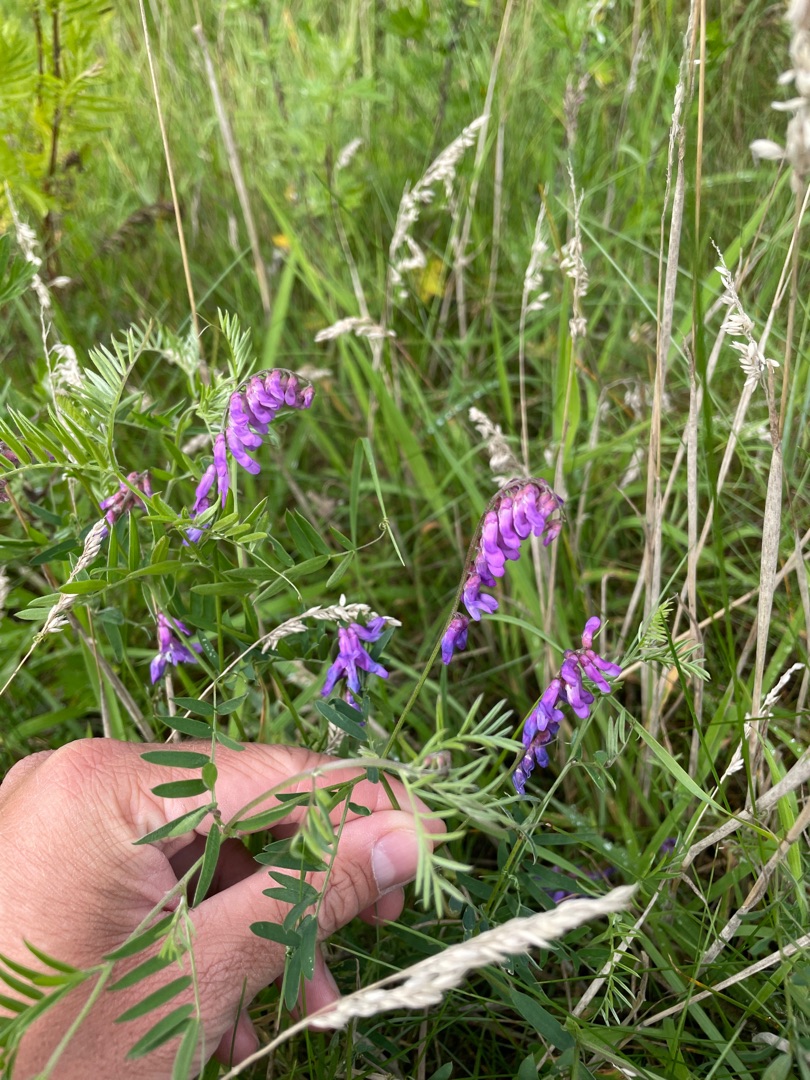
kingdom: Plantae
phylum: Tracheophyta
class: Magnoliopsida
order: Fabales
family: Fabaceae
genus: Vicia
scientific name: Vicia cracca
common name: Muse-vikke
